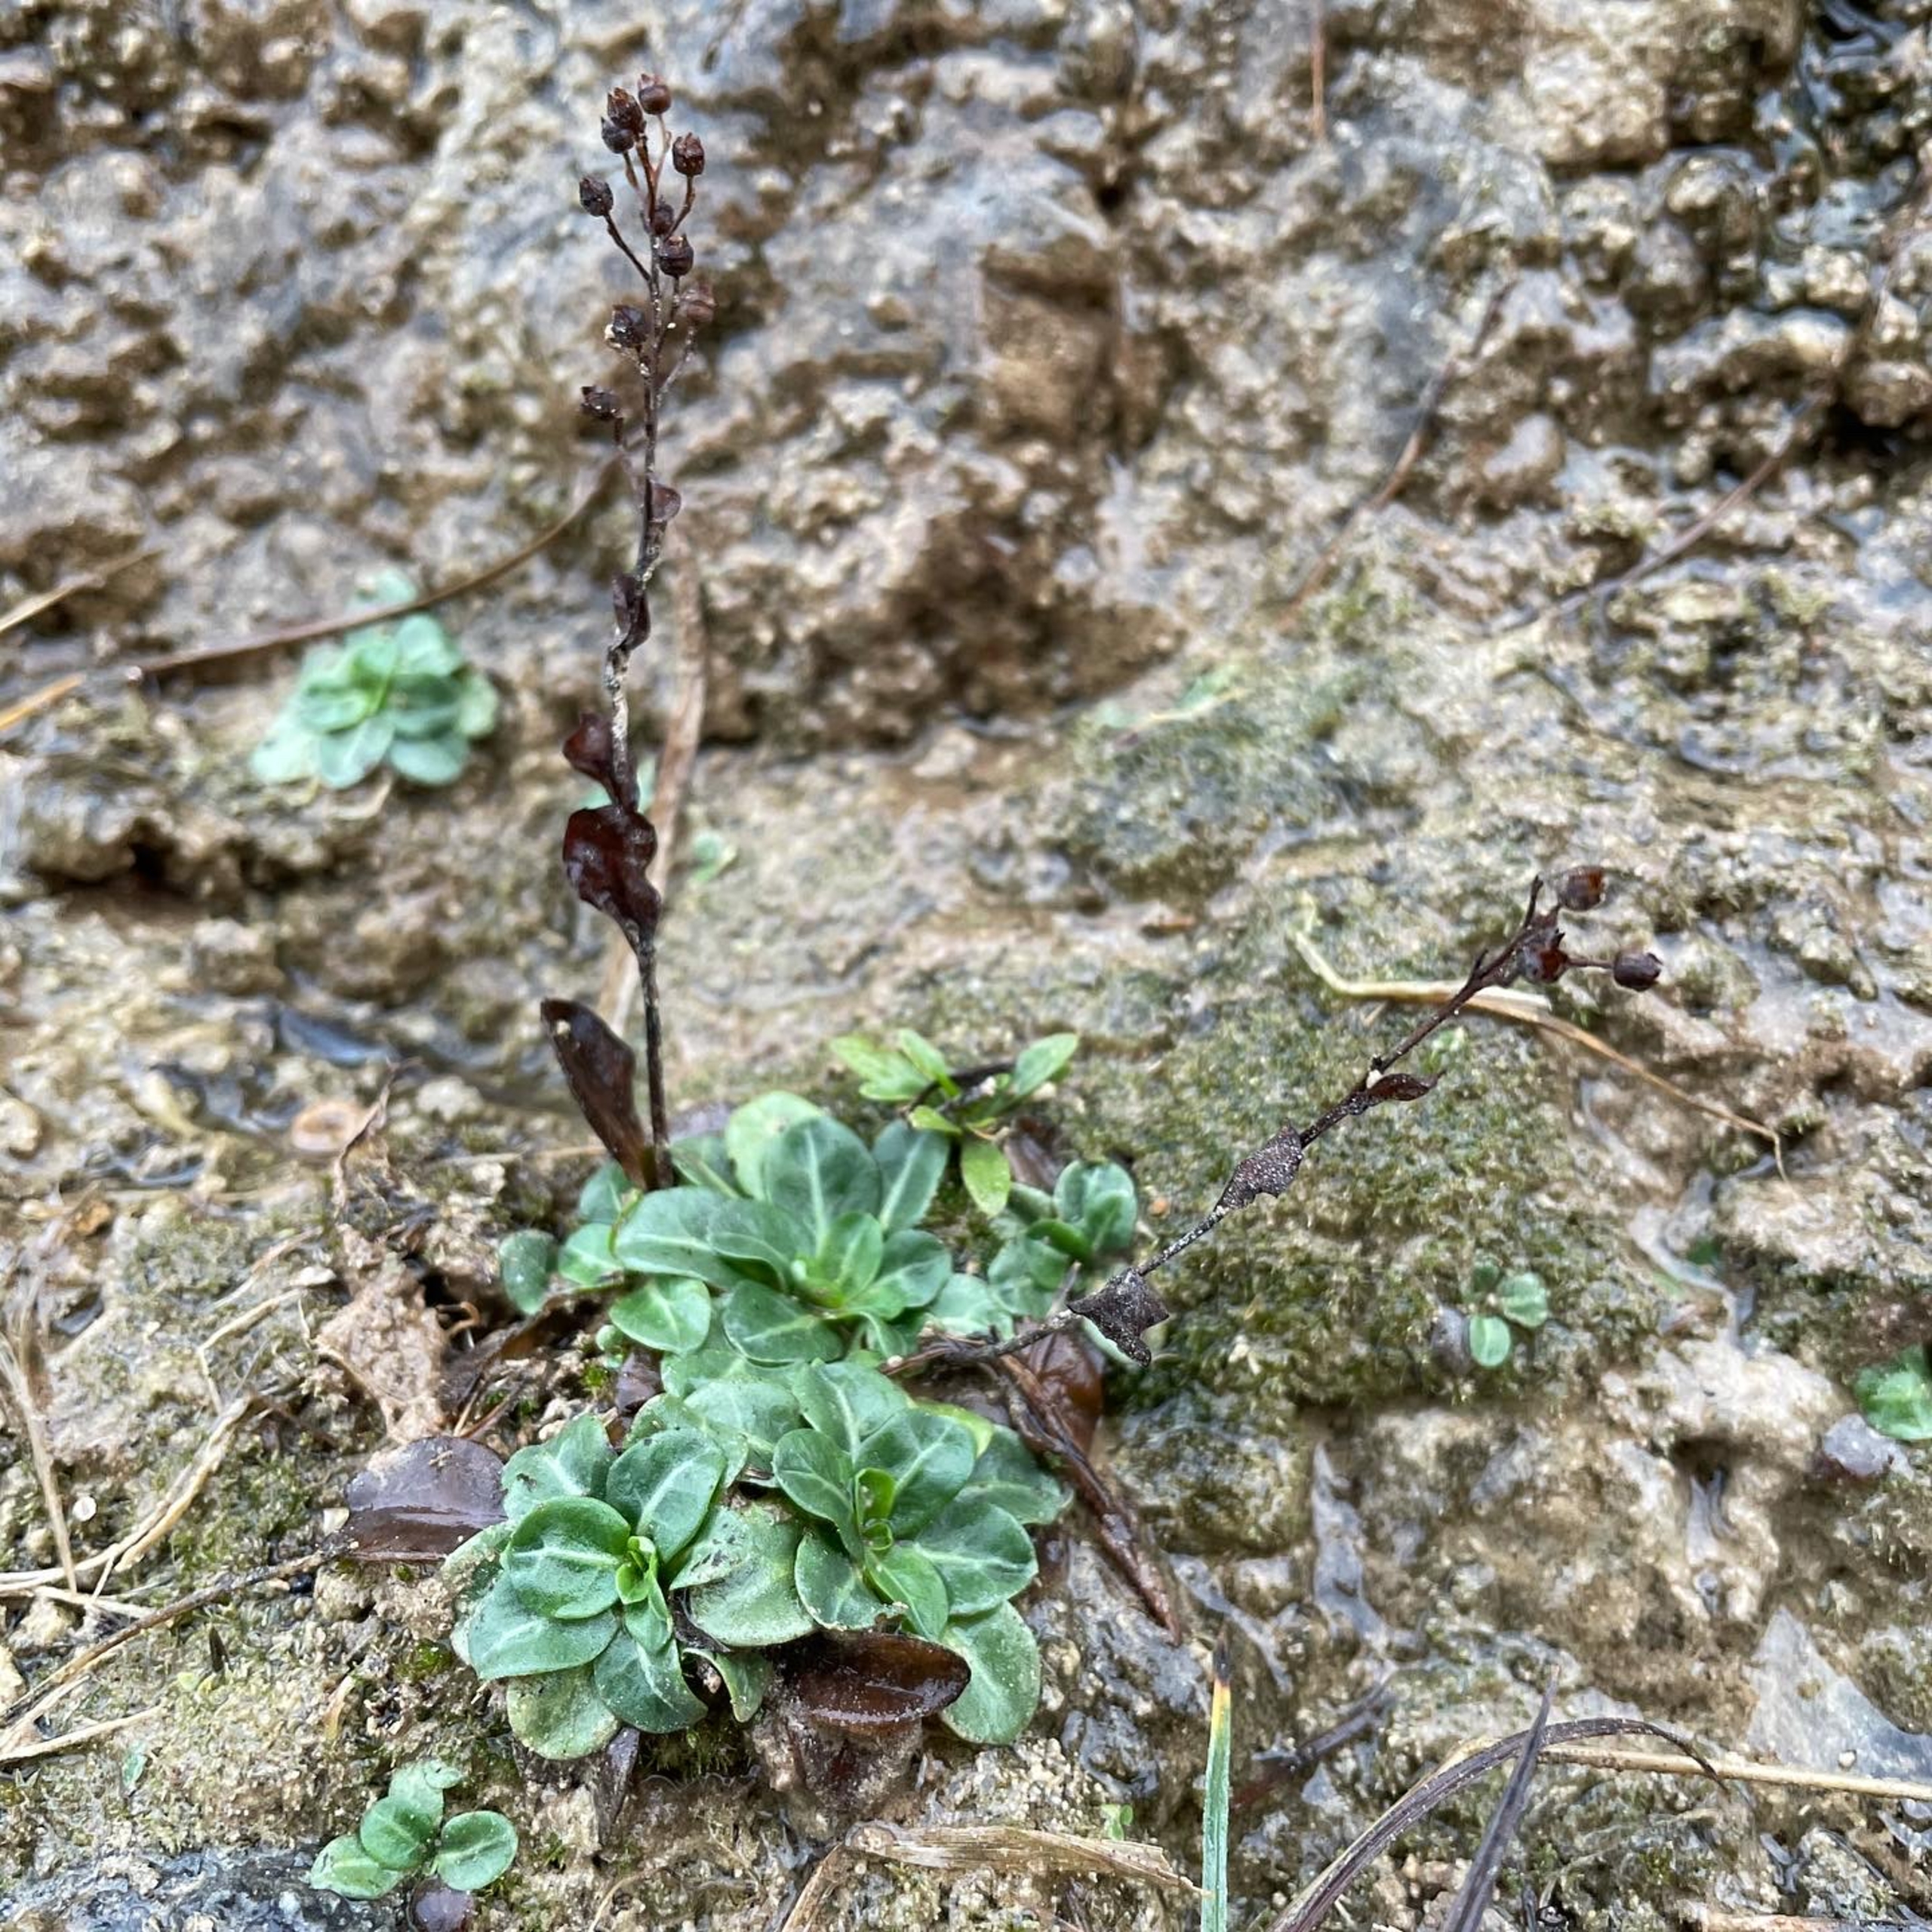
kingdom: Plantae
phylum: Tracheophyta
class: Magnoliopsida
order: Ericales
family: Primulaceae
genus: Samolus
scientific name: Samolus valerandi
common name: Samel
